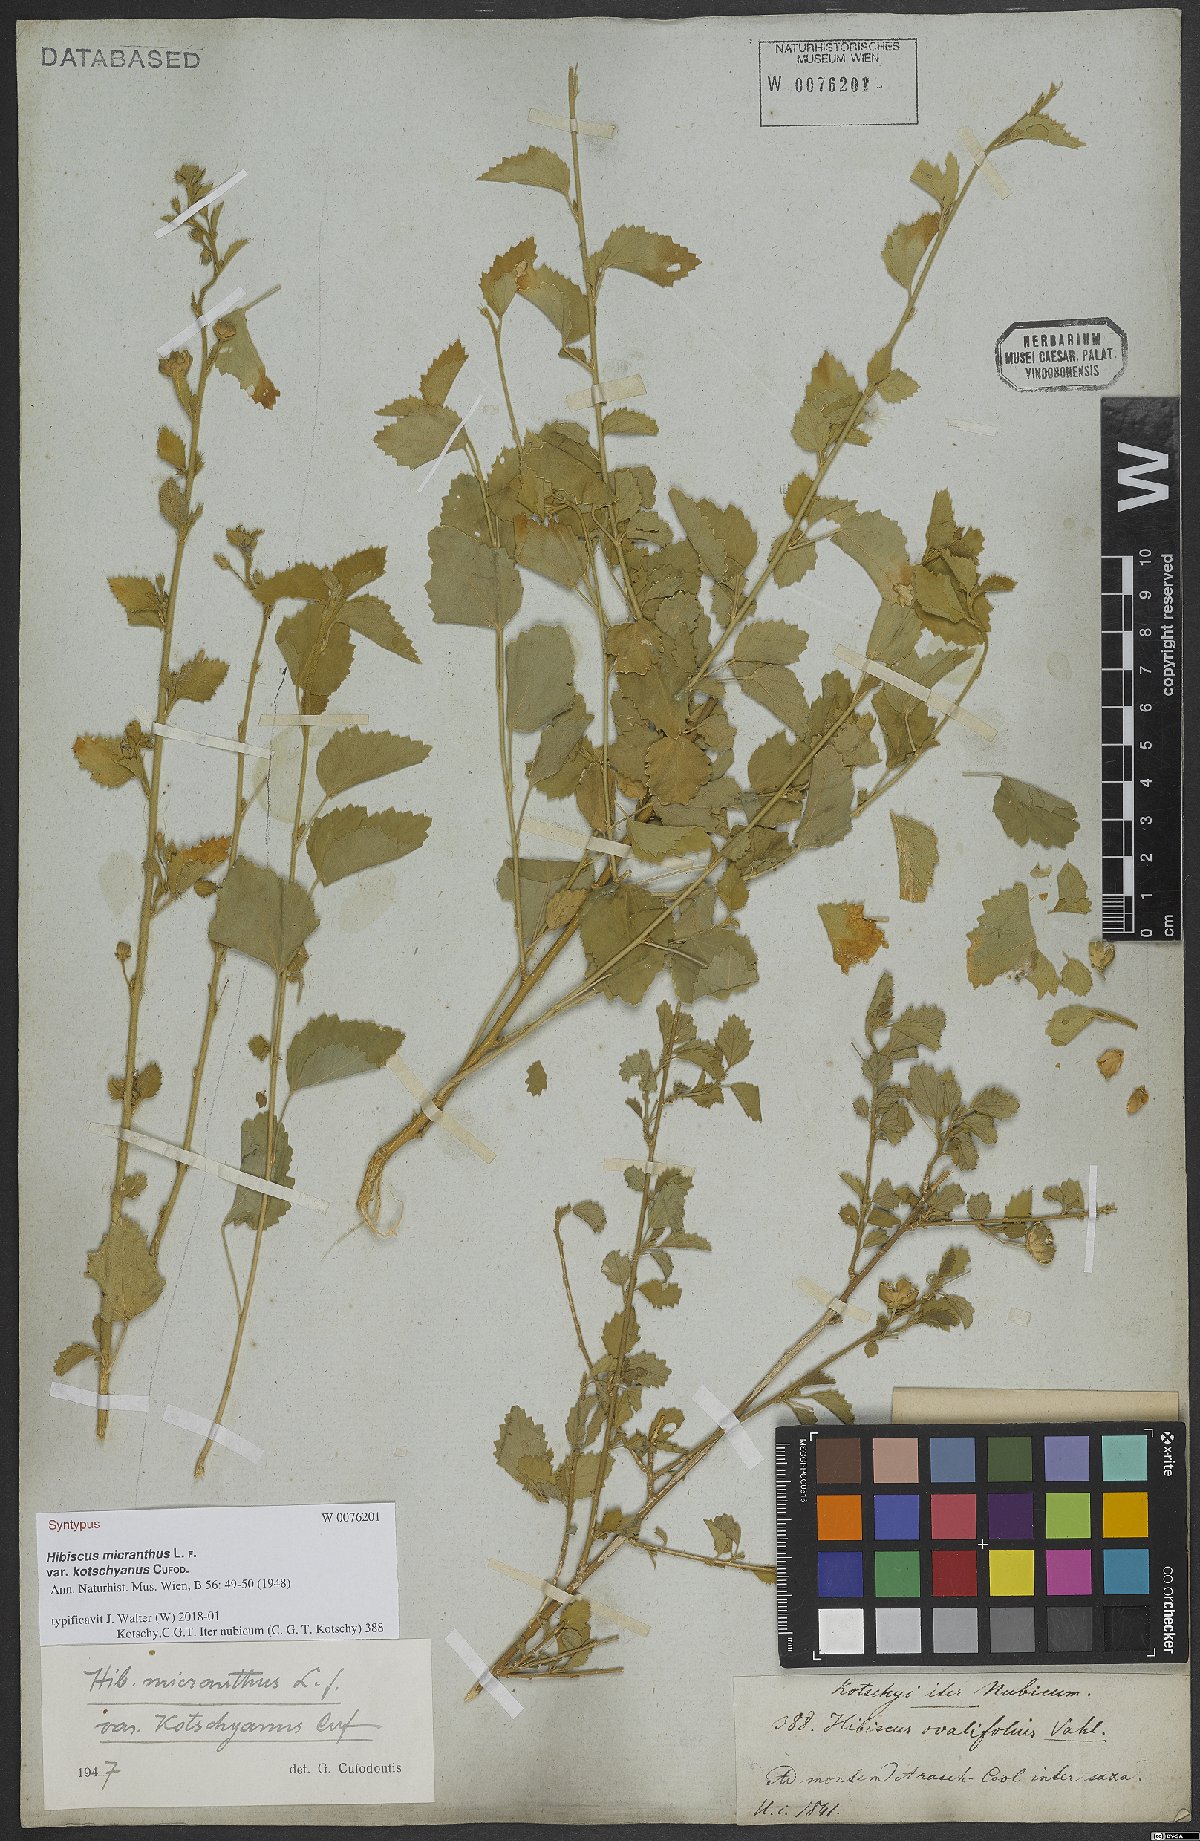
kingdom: Plantae
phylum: Tracheophyta
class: Magnoliopsida
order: Malvales
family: Malvaceae
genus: Hibiscus
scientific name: Hibiscus micranthus
